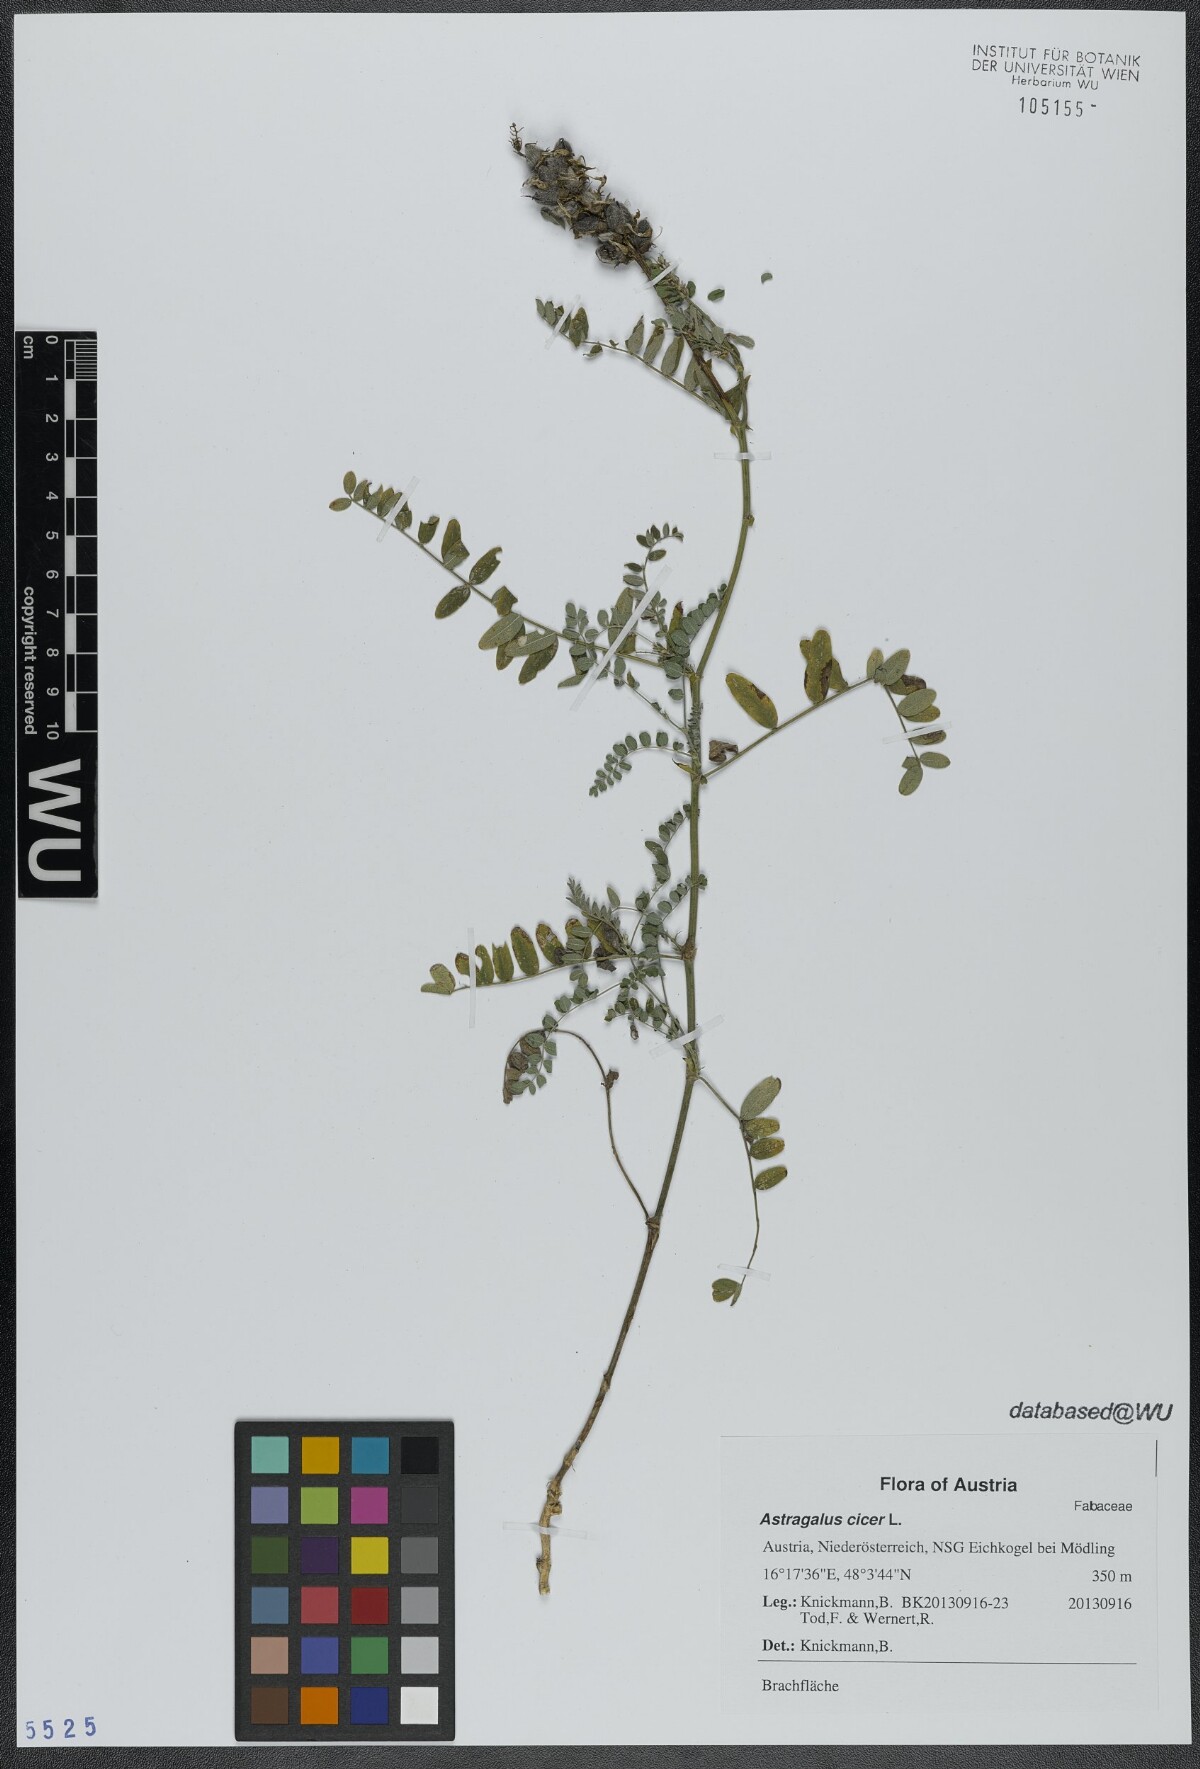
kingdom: Plantae
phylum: Tracheophyta
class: Magnoliopsida
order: Fabales
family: Fabaceae
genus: Astragalus
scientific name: Astragalus cicer
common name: Chick-pea milk-vetch
